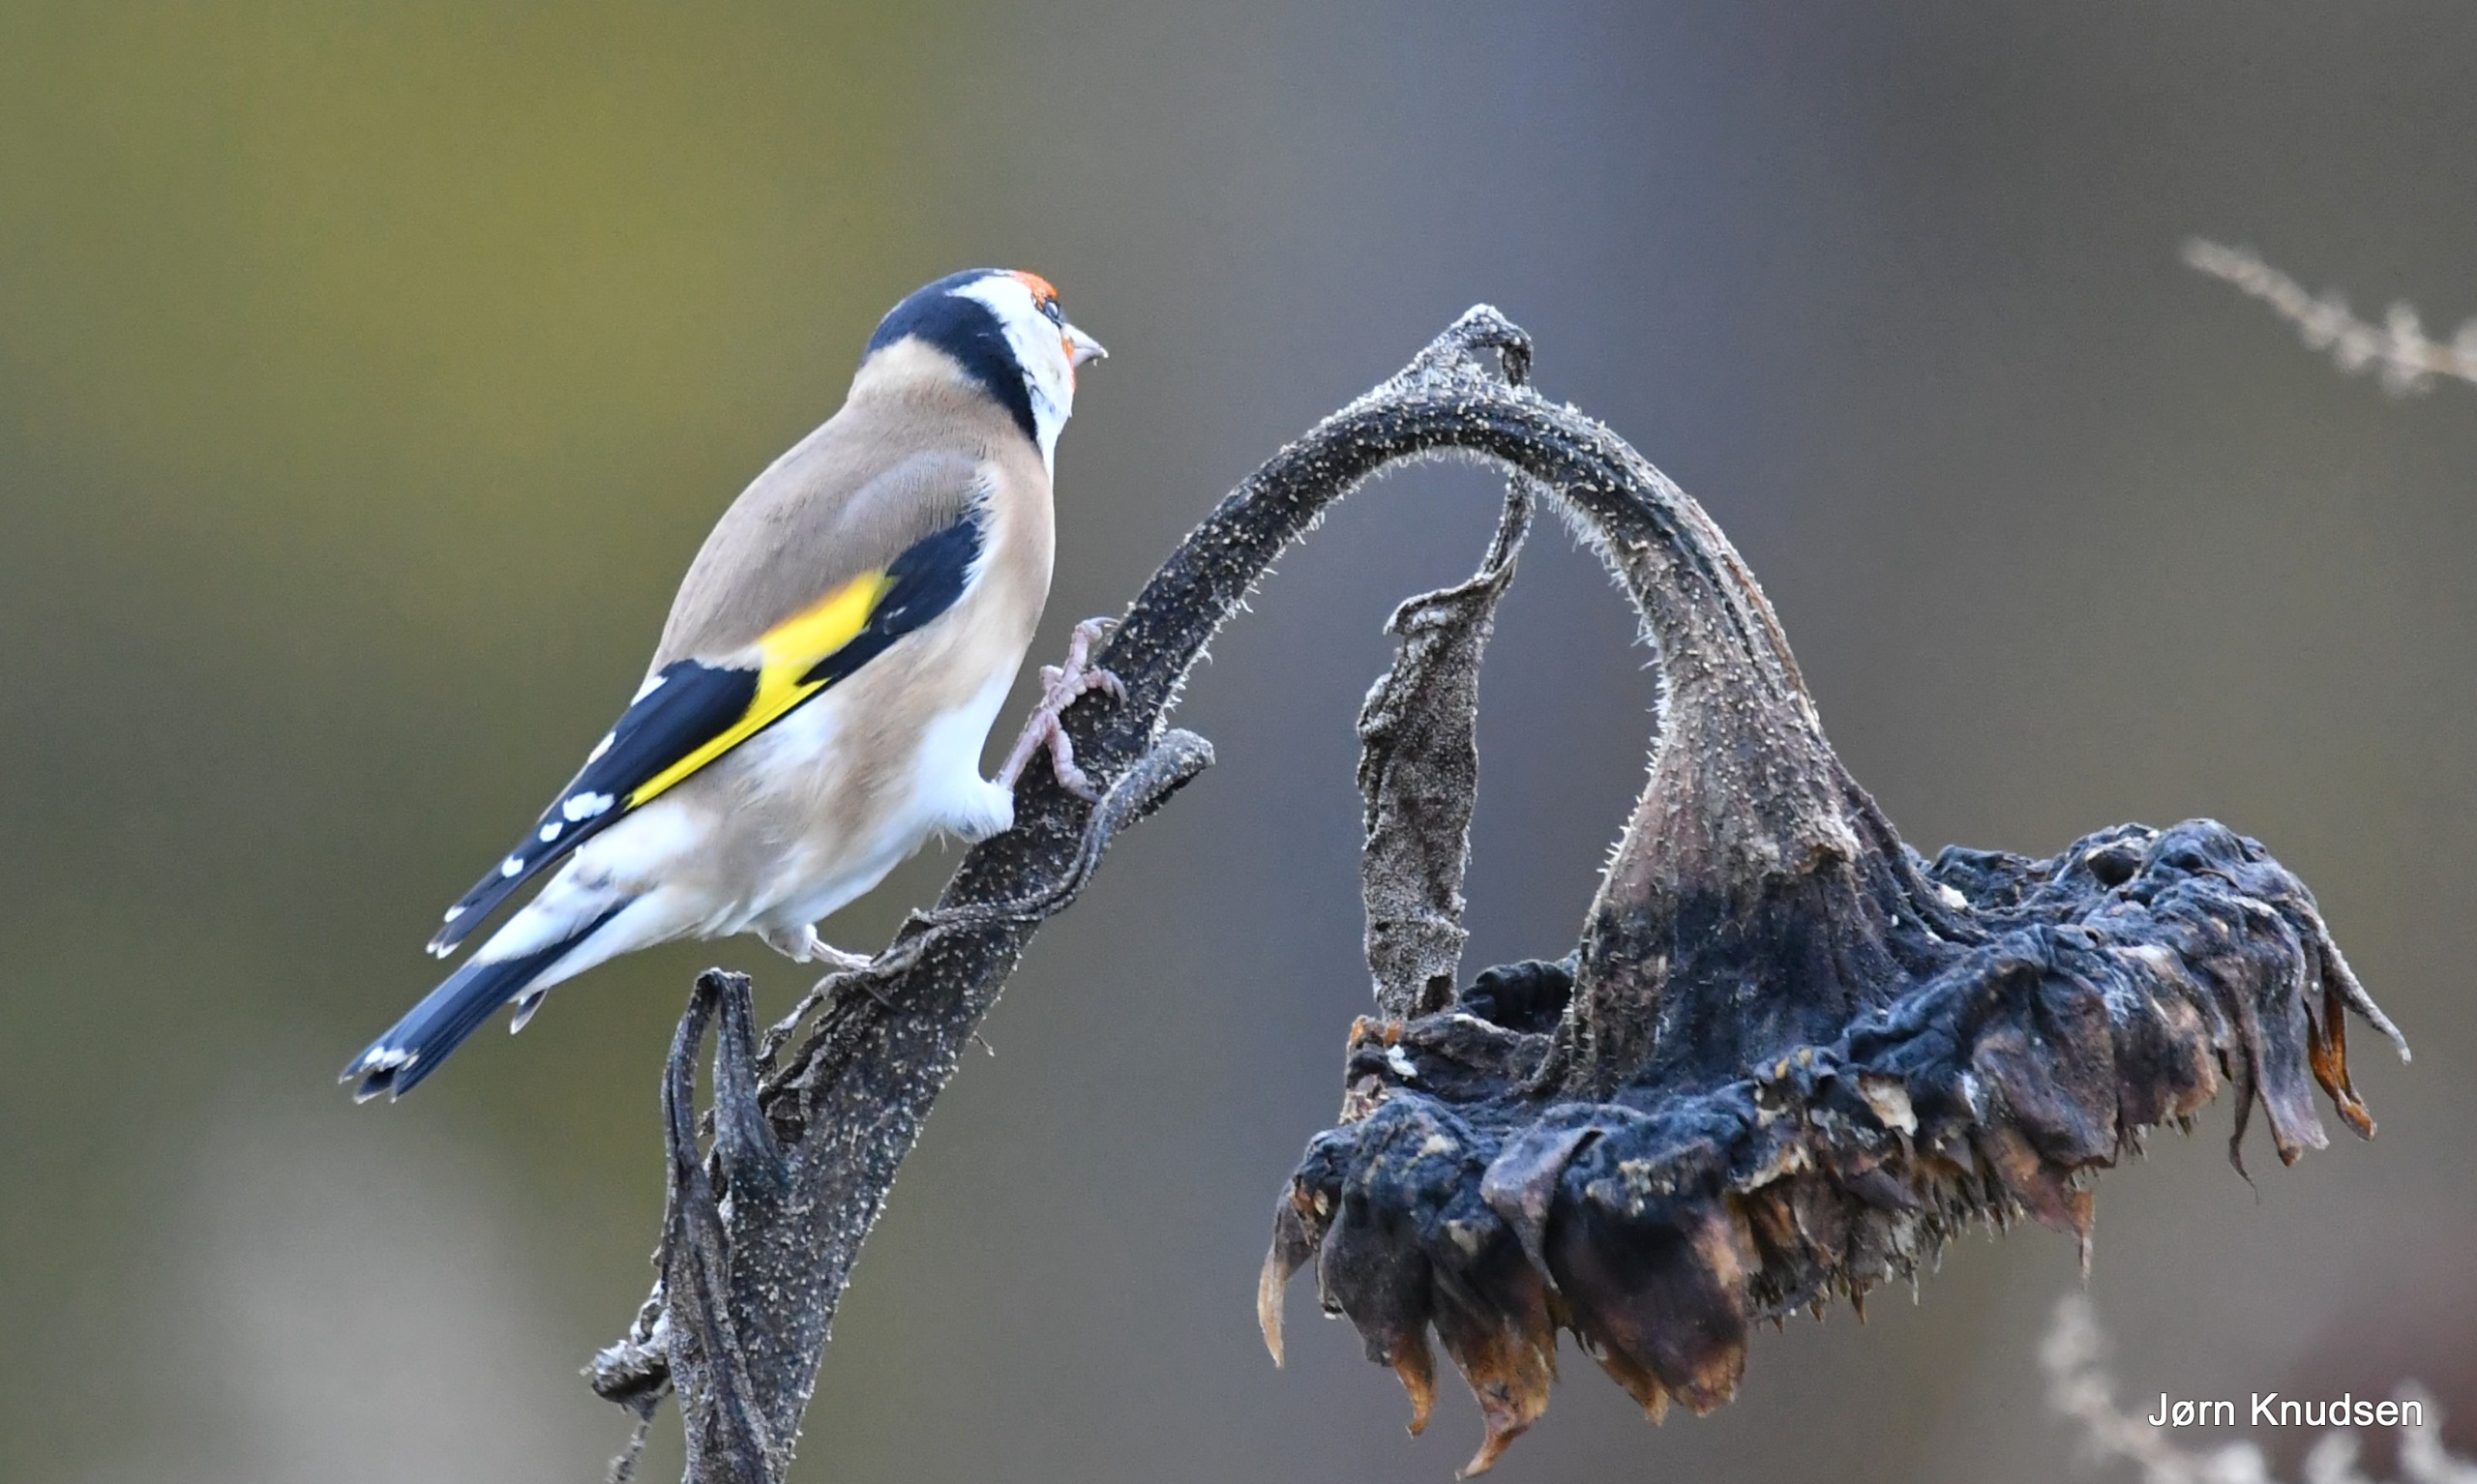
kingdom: Animalia
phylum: Chordata
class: Aves
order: Passeriformes
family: Fringillidae
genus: Carduelis
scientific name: Carduelis carduelis
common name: Stillits
